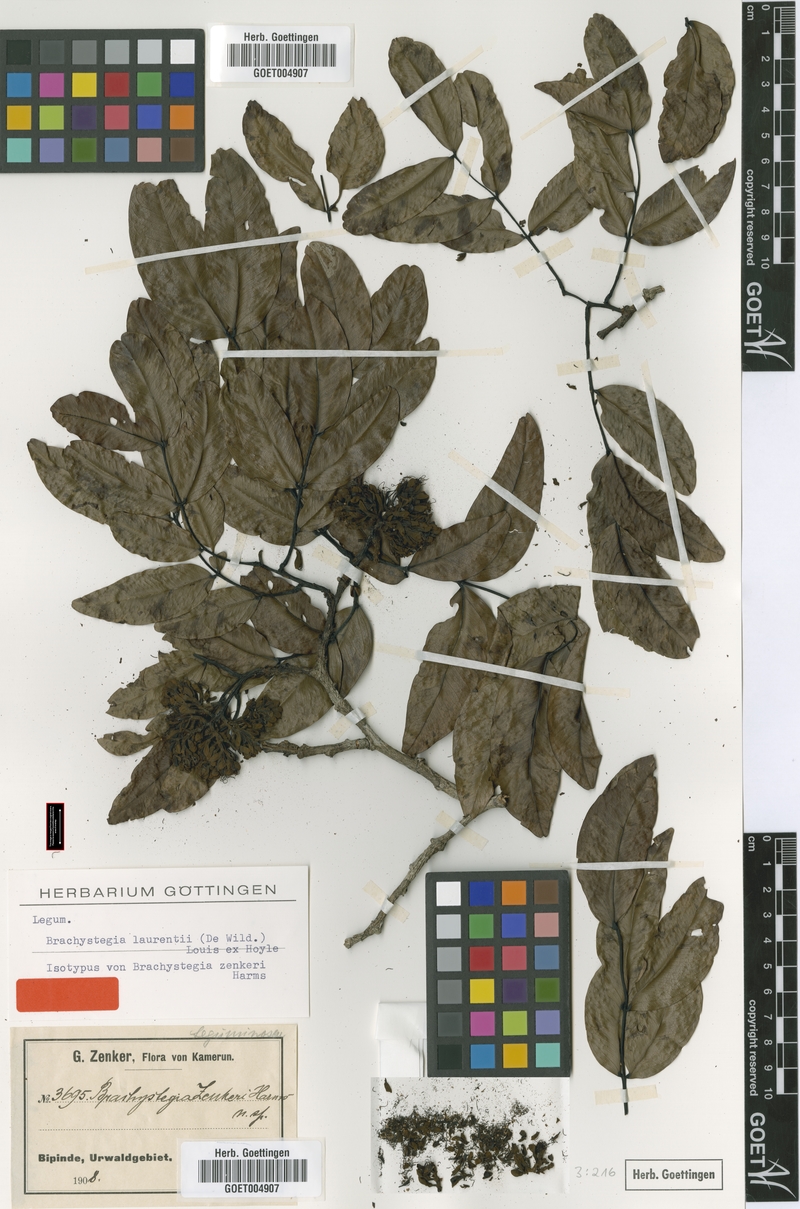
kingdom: Plantae
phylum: Tracheophyta
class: Magnoliopsida
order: Fabales
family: Fabaceae
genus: Brachystegia
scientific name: Brachystegia laurentii
